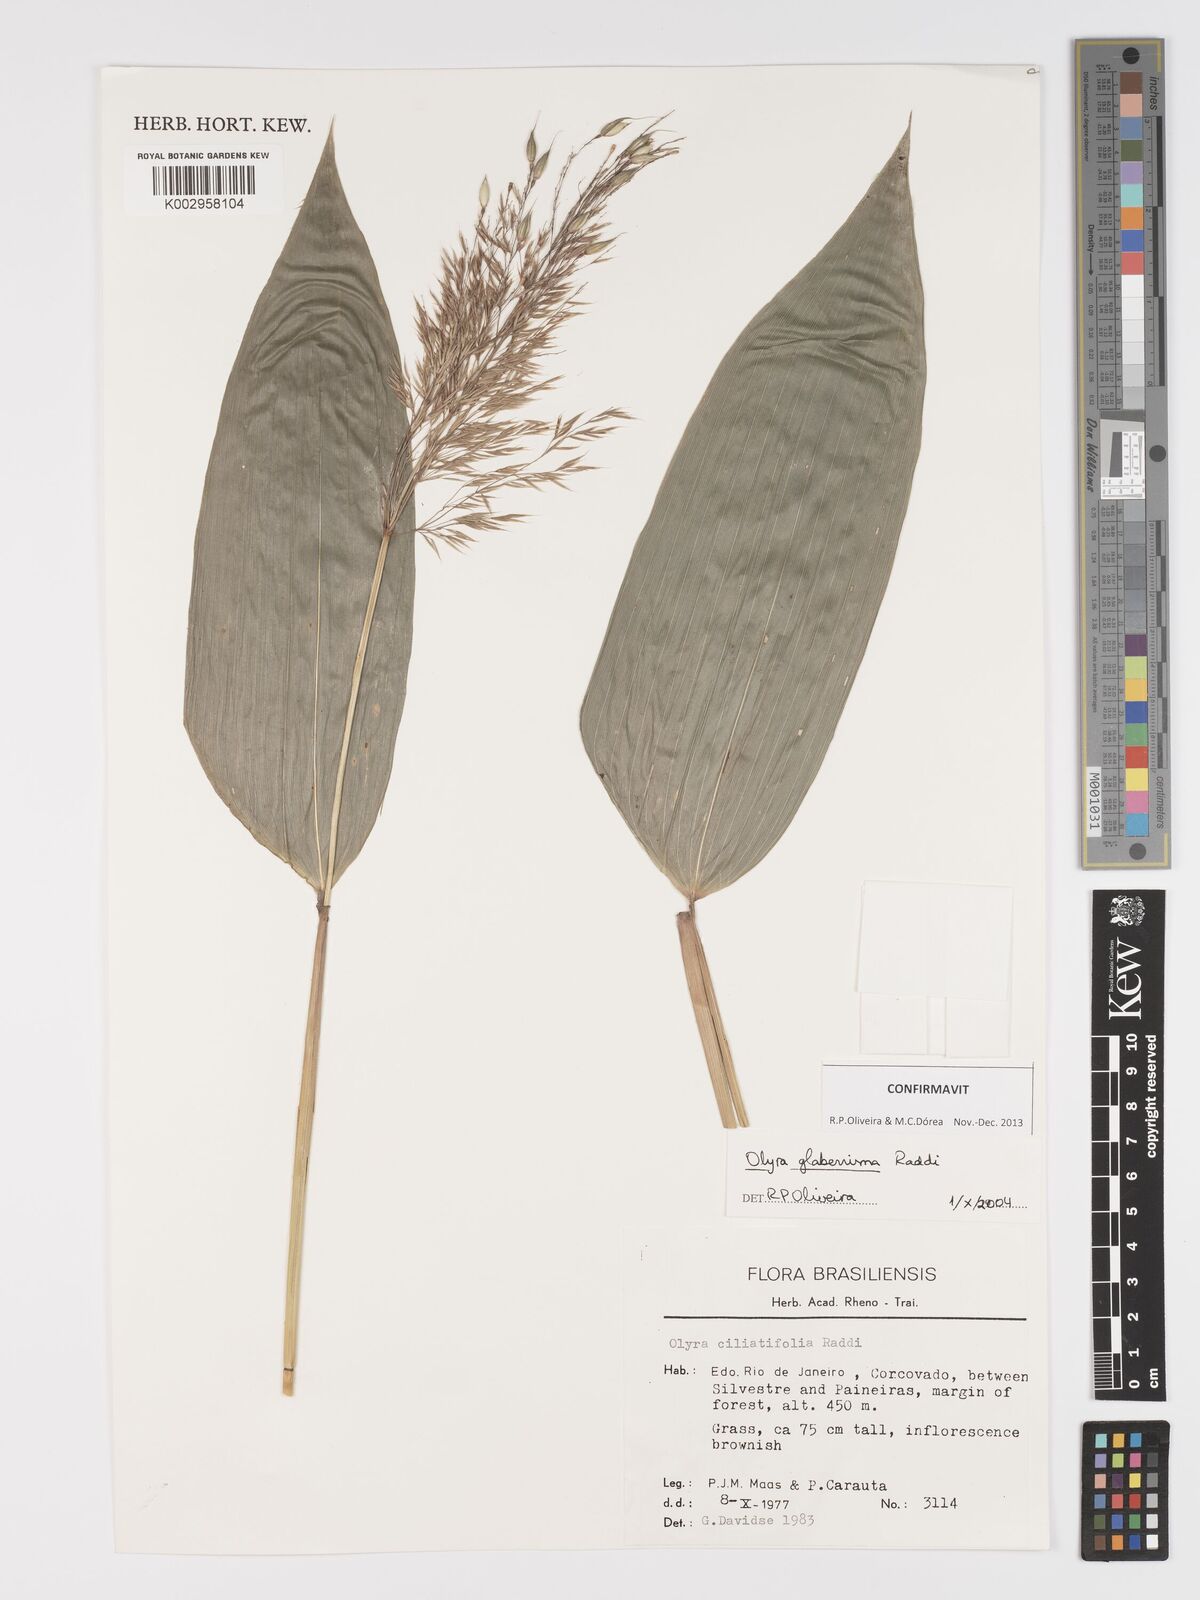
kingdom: Plantae
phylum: Tracheophyta
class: Liliopsida
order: Poales
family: Poaceae
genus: Olyra
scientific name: Olyra glaberrima
